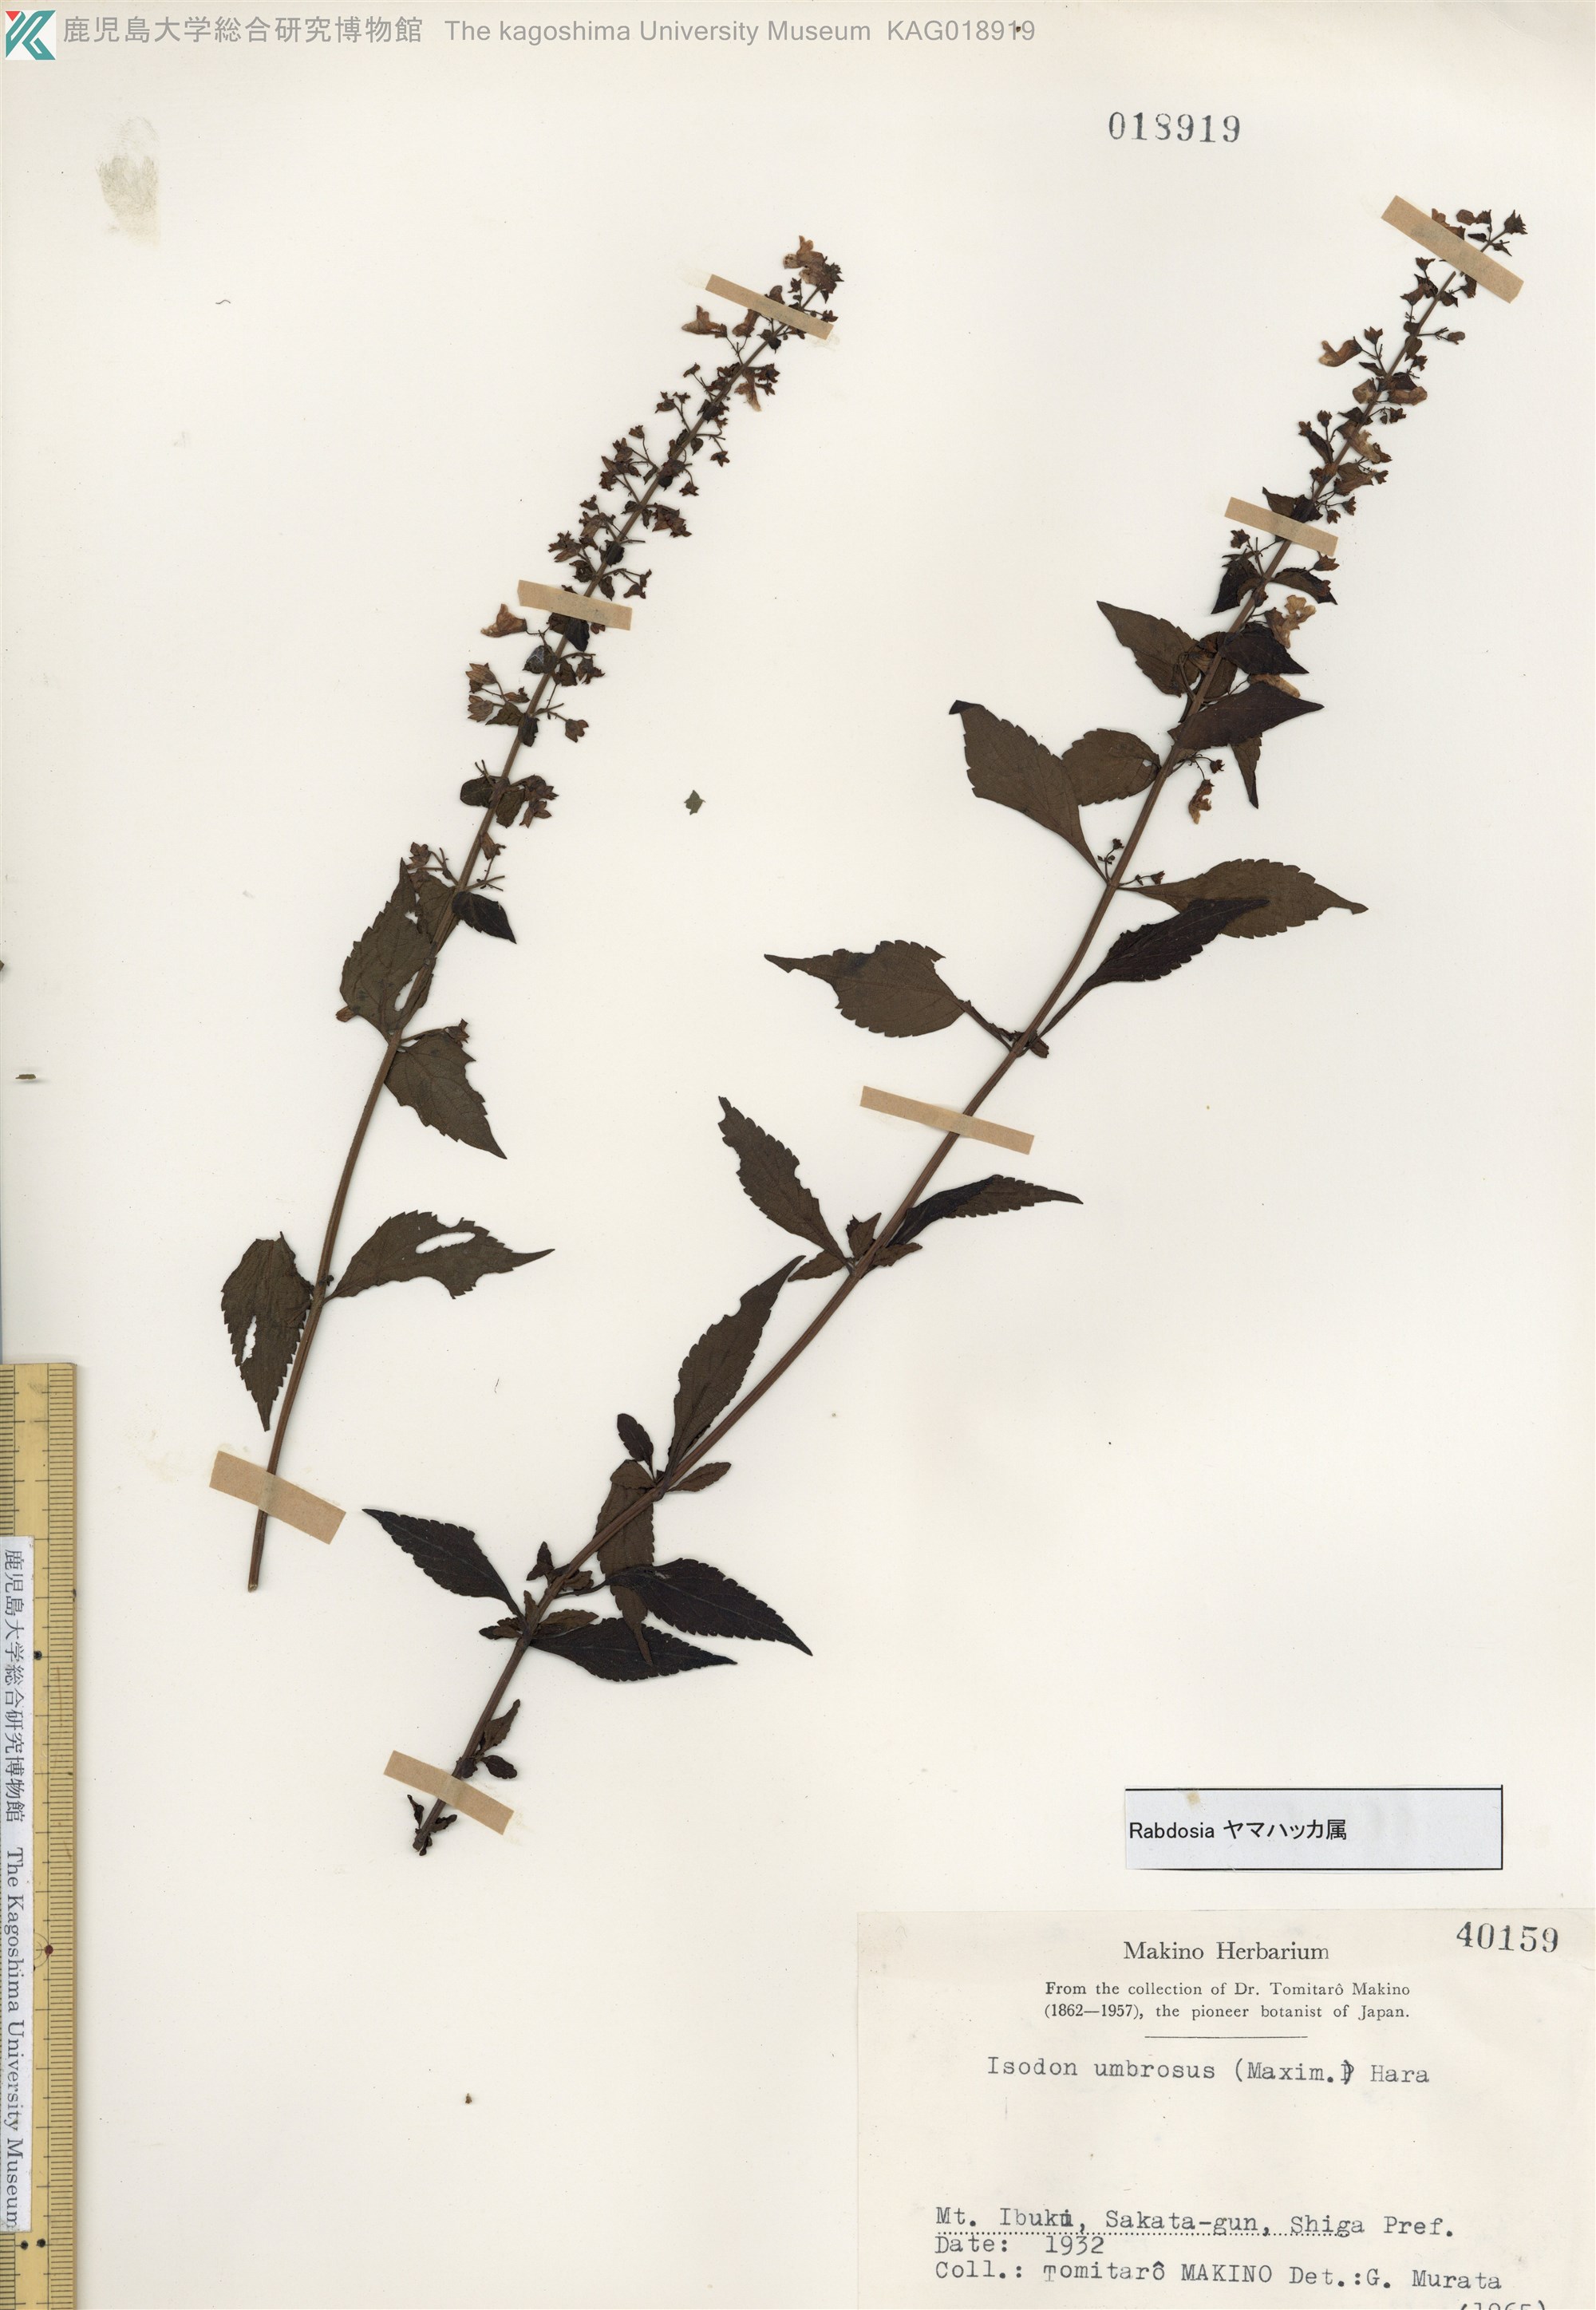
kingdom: Plantae
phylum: Tracheophyta
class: Magnoliopsida
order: Lamiales
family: Lamiaceae
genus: Isodon
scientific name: Isodon umbrosus
